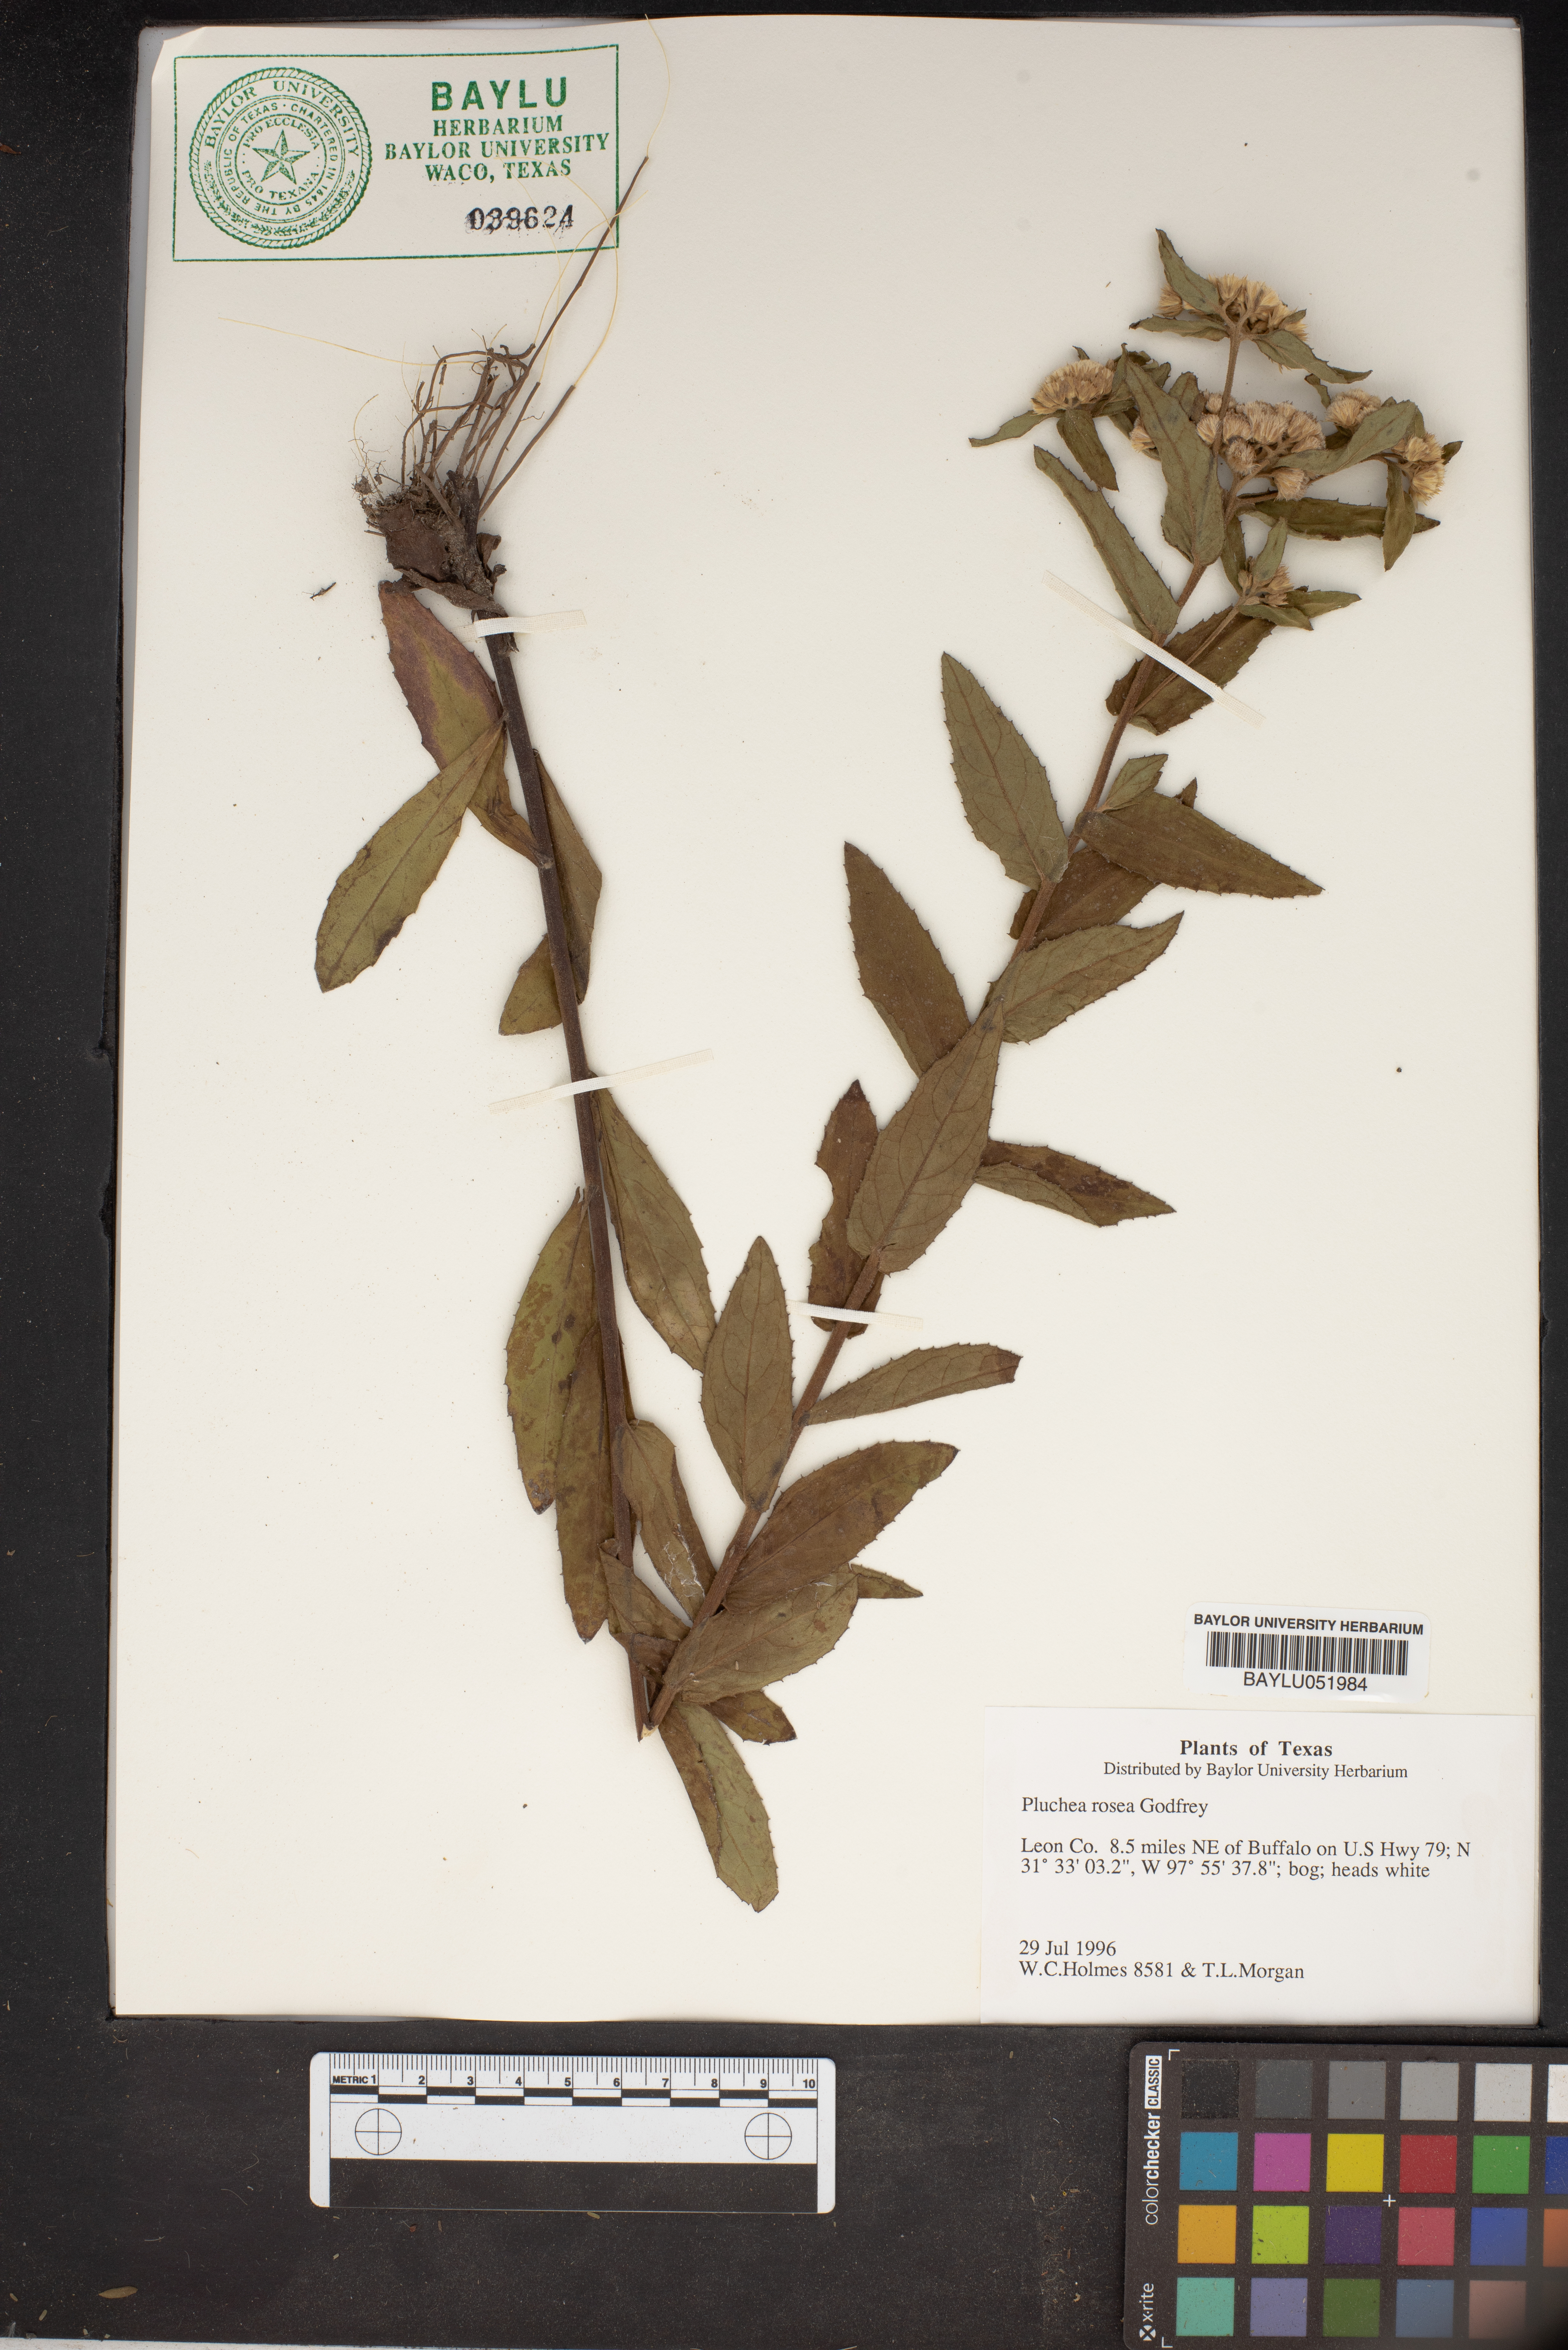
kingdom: Plantae
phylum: Tracheophyta
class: Magnoliopsida
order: Asterales
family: Asteraceae
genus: Pluchea
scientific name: Pluchea baccharis
